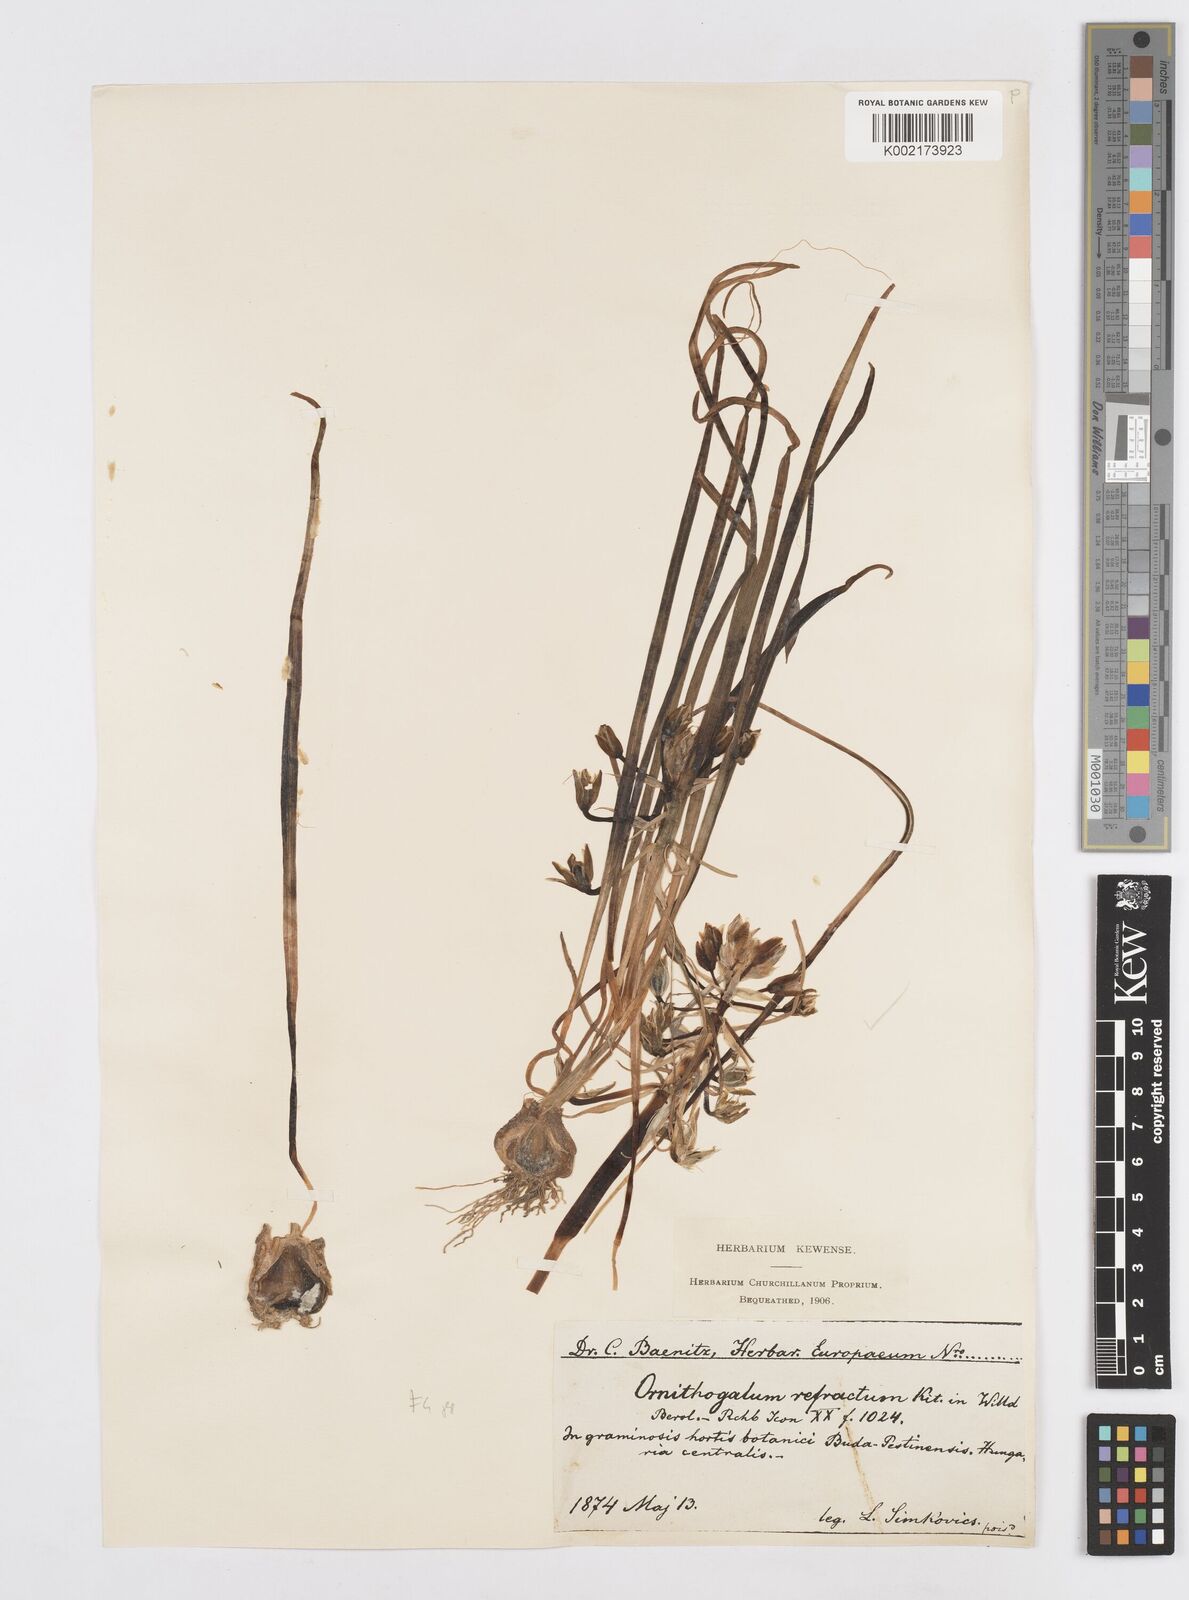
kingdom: Plantae
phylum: Tracheophyta
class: Liliopsida
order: Asparagales
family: Asparagaceae
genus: Ornithogalum
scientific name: Ornithogalum refractum
